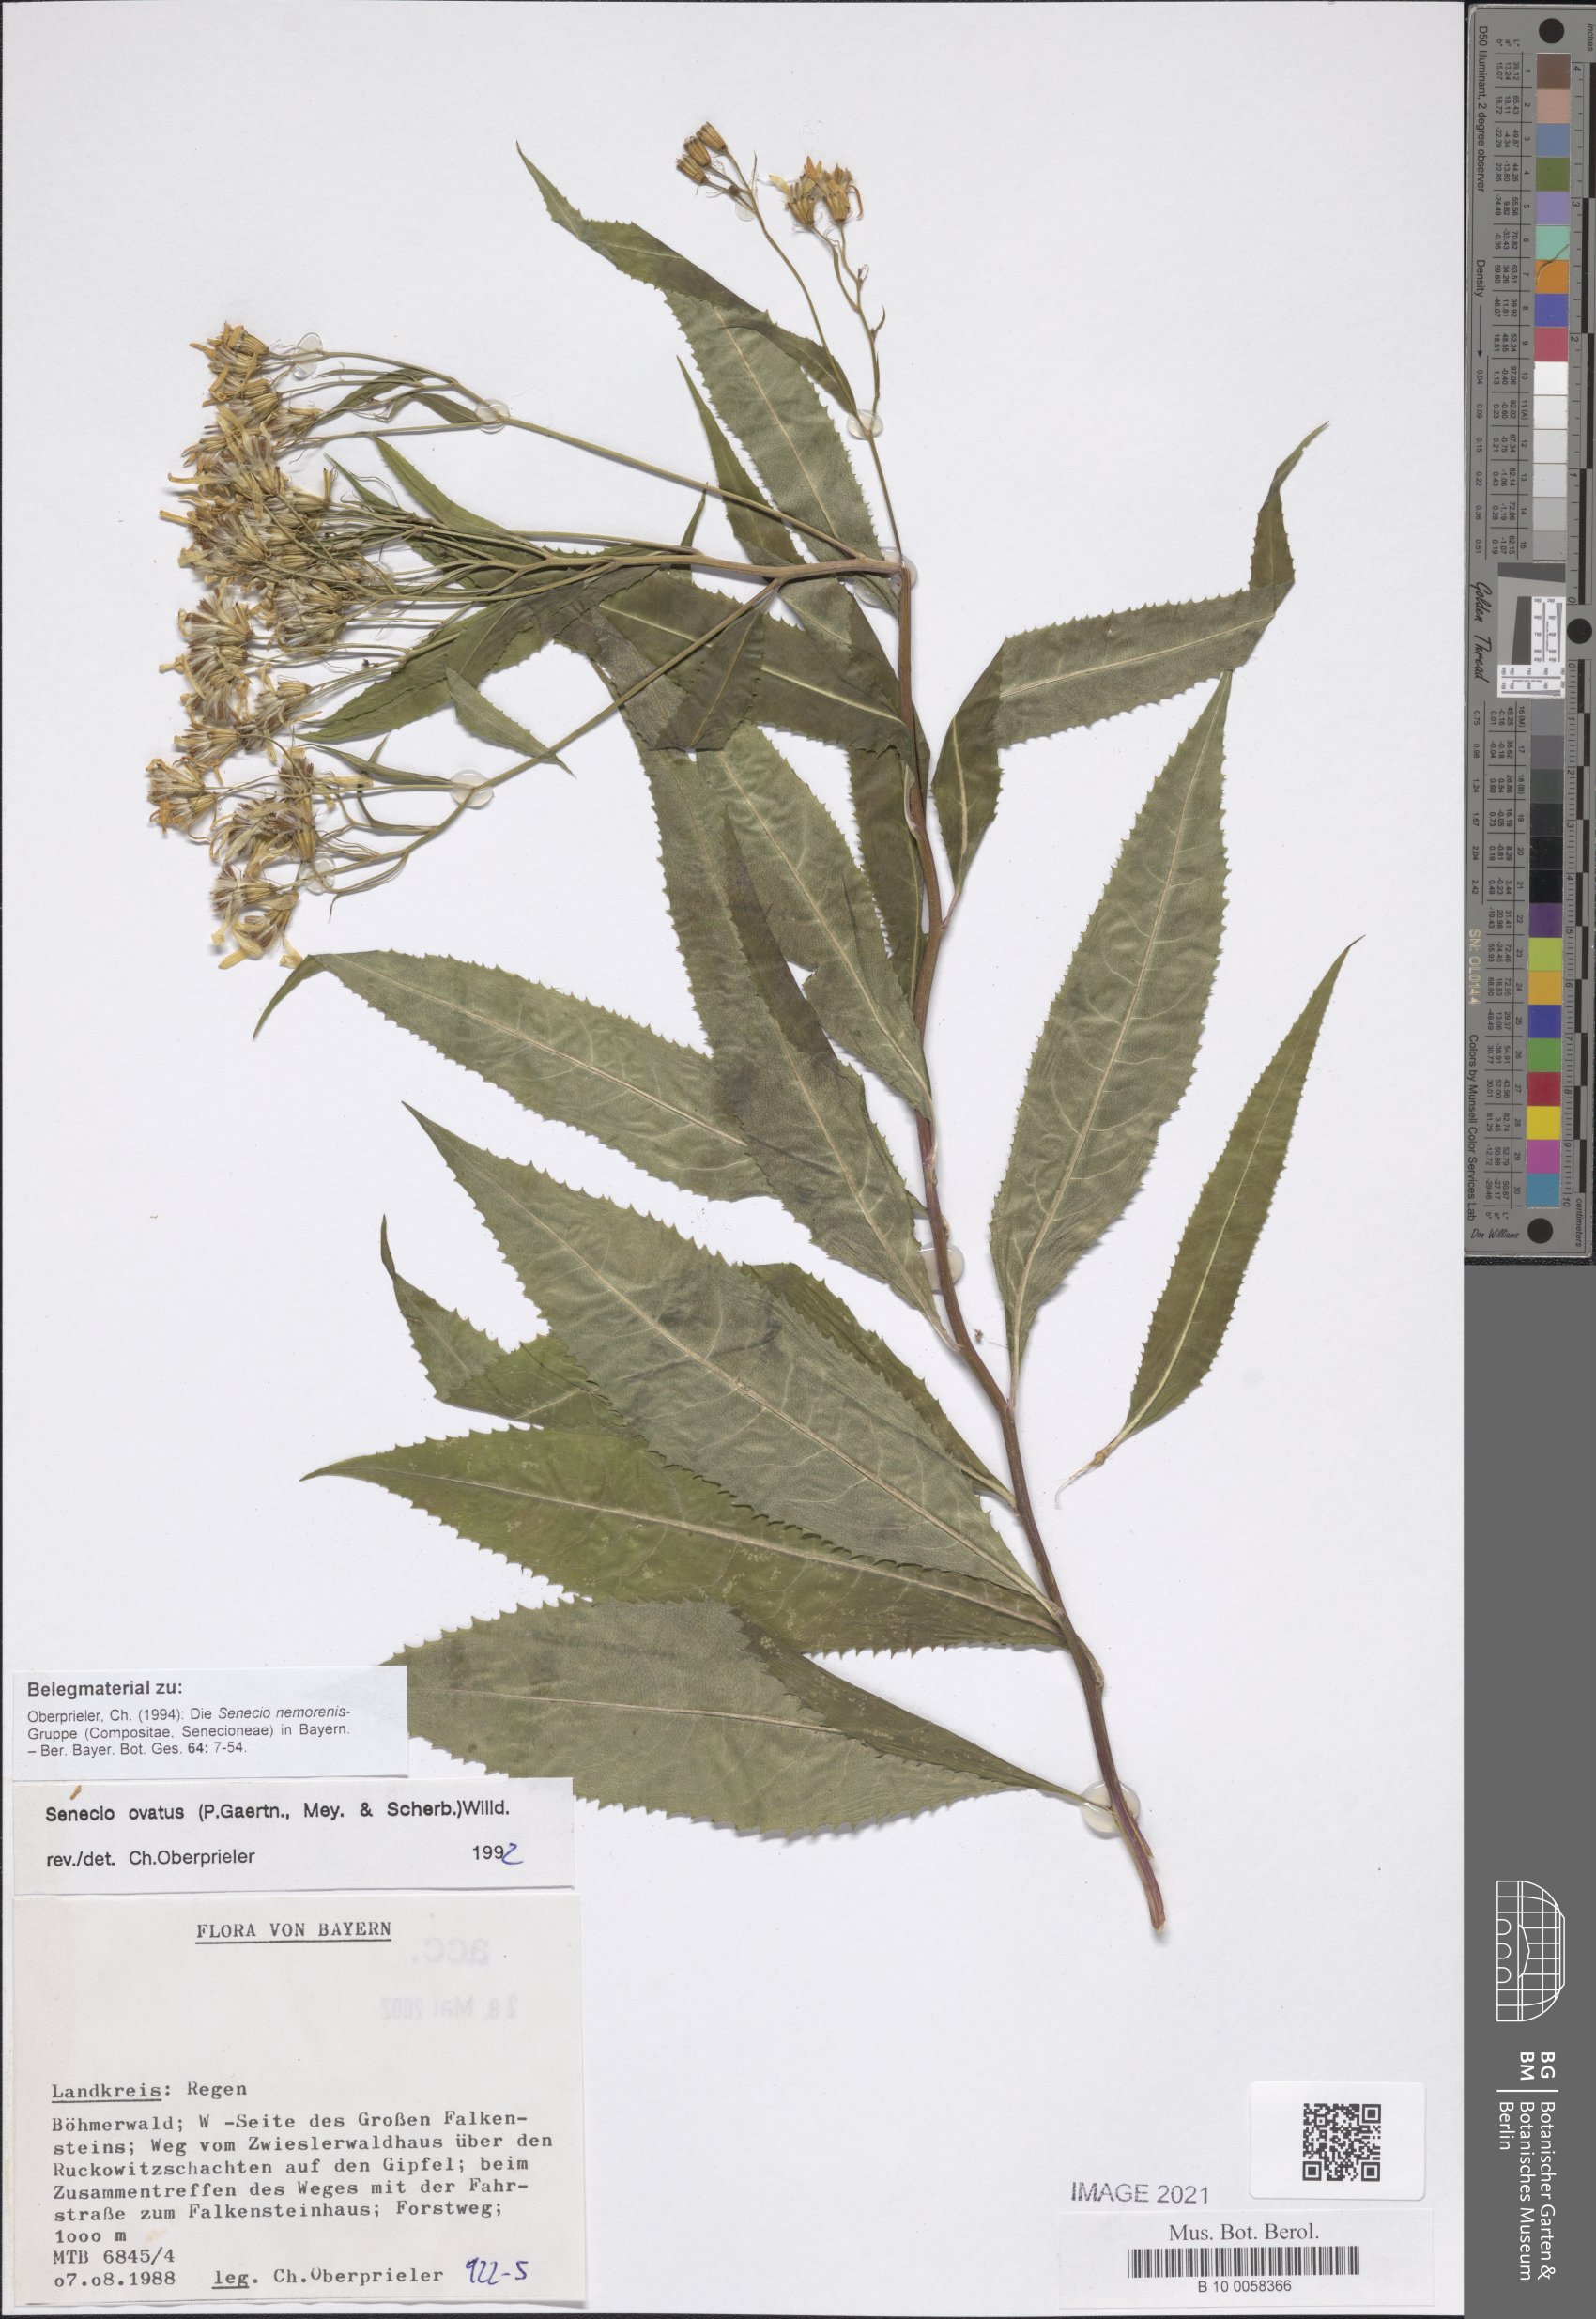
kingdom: Plantae
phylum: Tracheophyta
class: Magnoliopsida
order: Asterales
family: Asteraceae
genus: Senecio
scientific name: Senecio ovatus
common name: Wood ragwort
